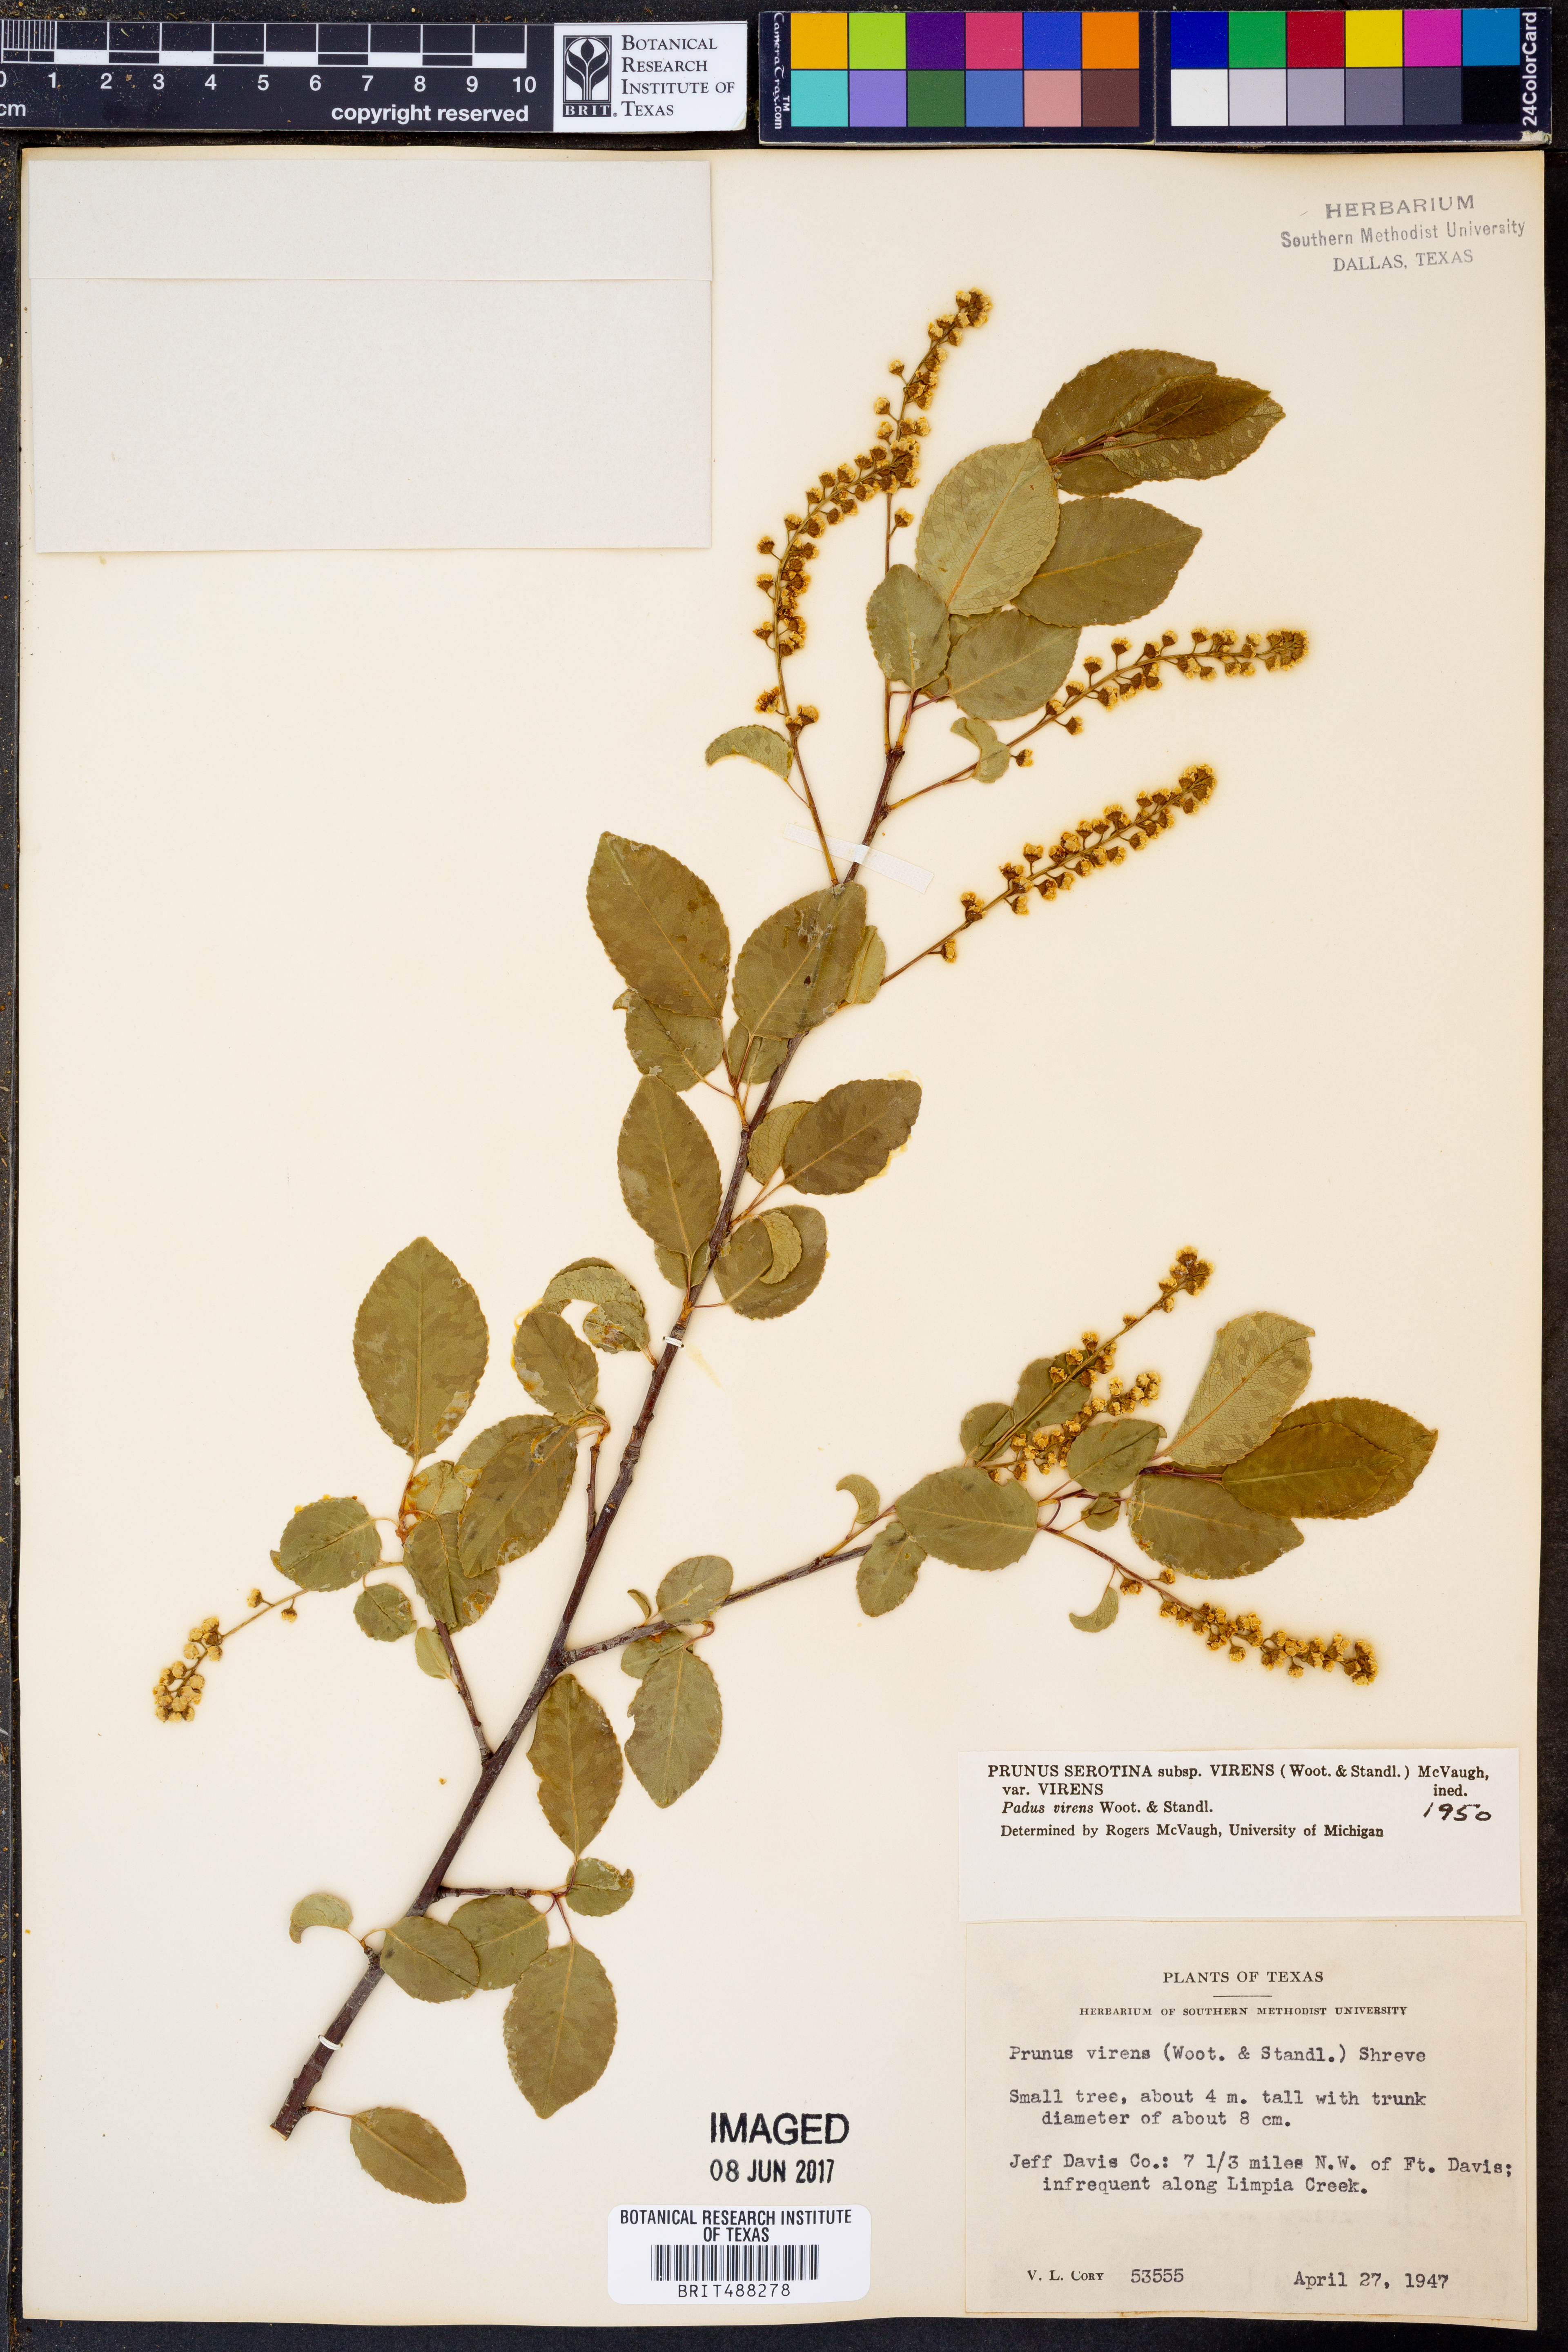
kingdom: Plantae
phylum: Tracheophyta
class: Magnoliopsida
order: Rosales
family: Rosaceae
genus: Prunus
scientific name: Prunus serotina
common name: Black cherry
